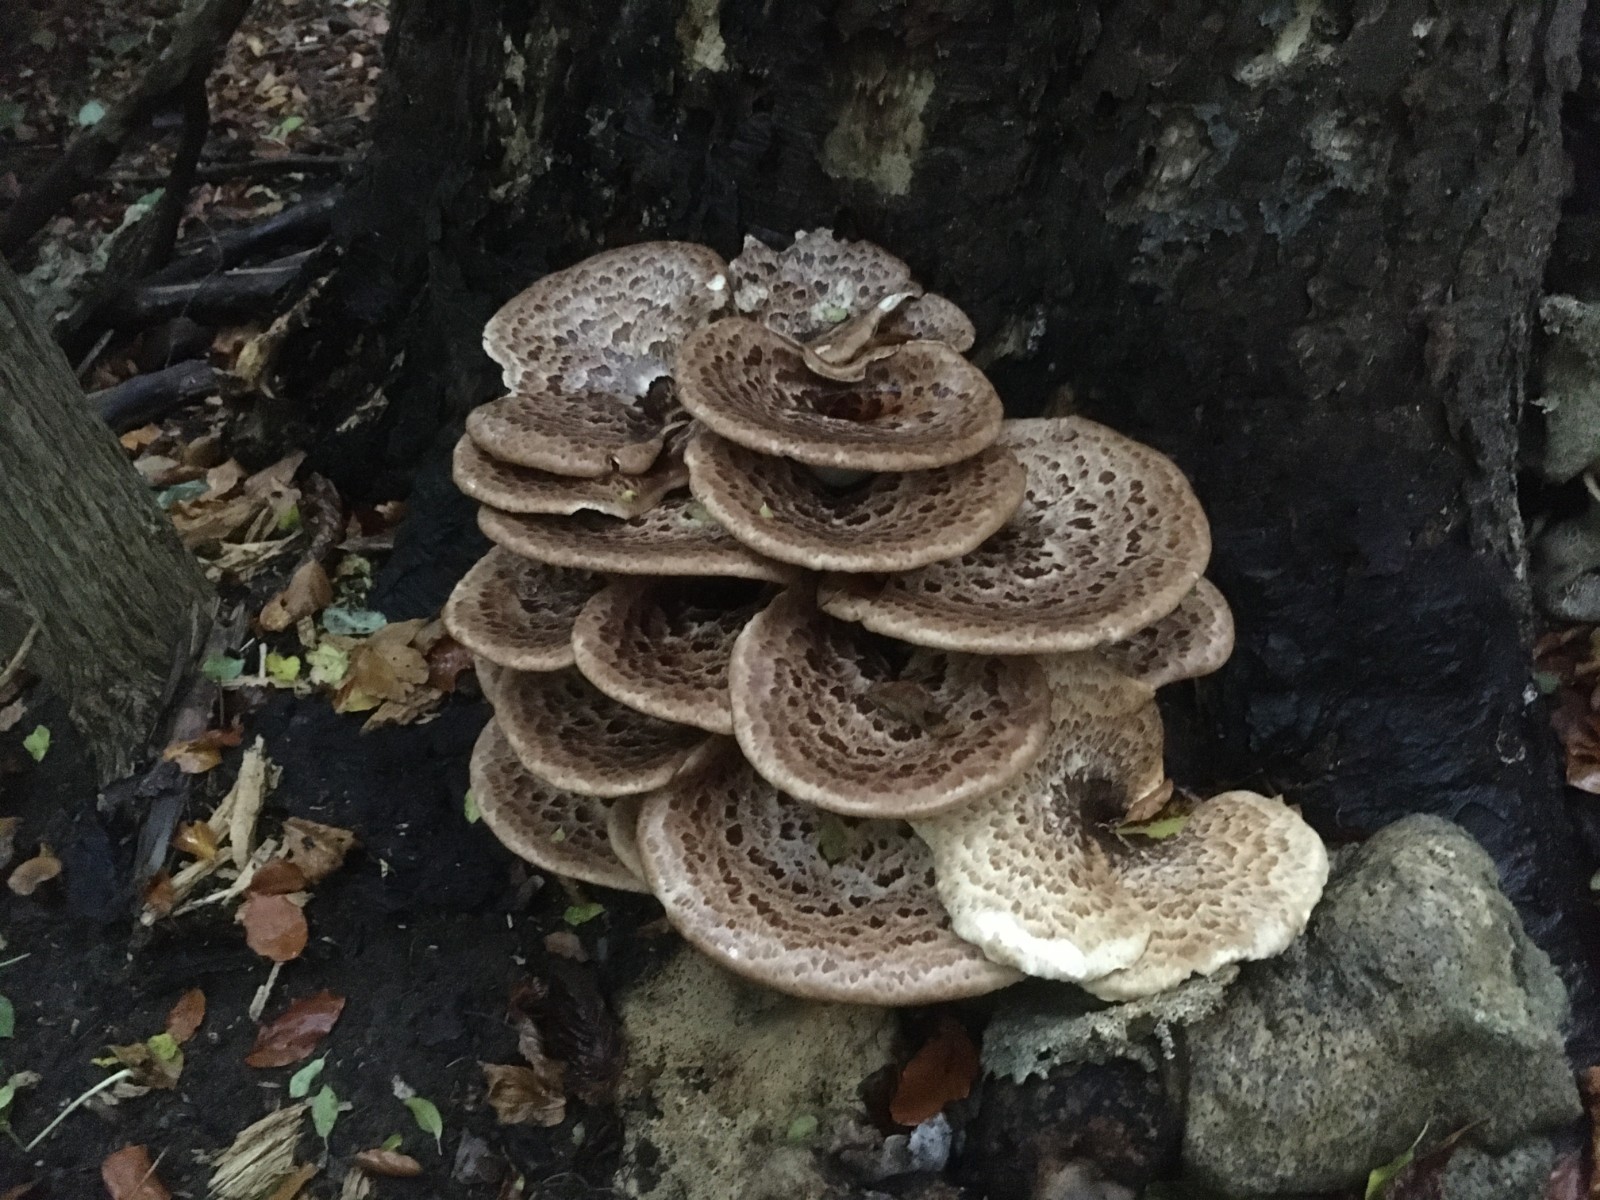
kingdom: Fungi
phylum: Basidiomycota
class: Agaricomycetes
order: Polyporales
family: Polyporaceae
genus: Cerioporus
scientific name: Cerioporus squamosus
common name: skællet stilkporesvamp
